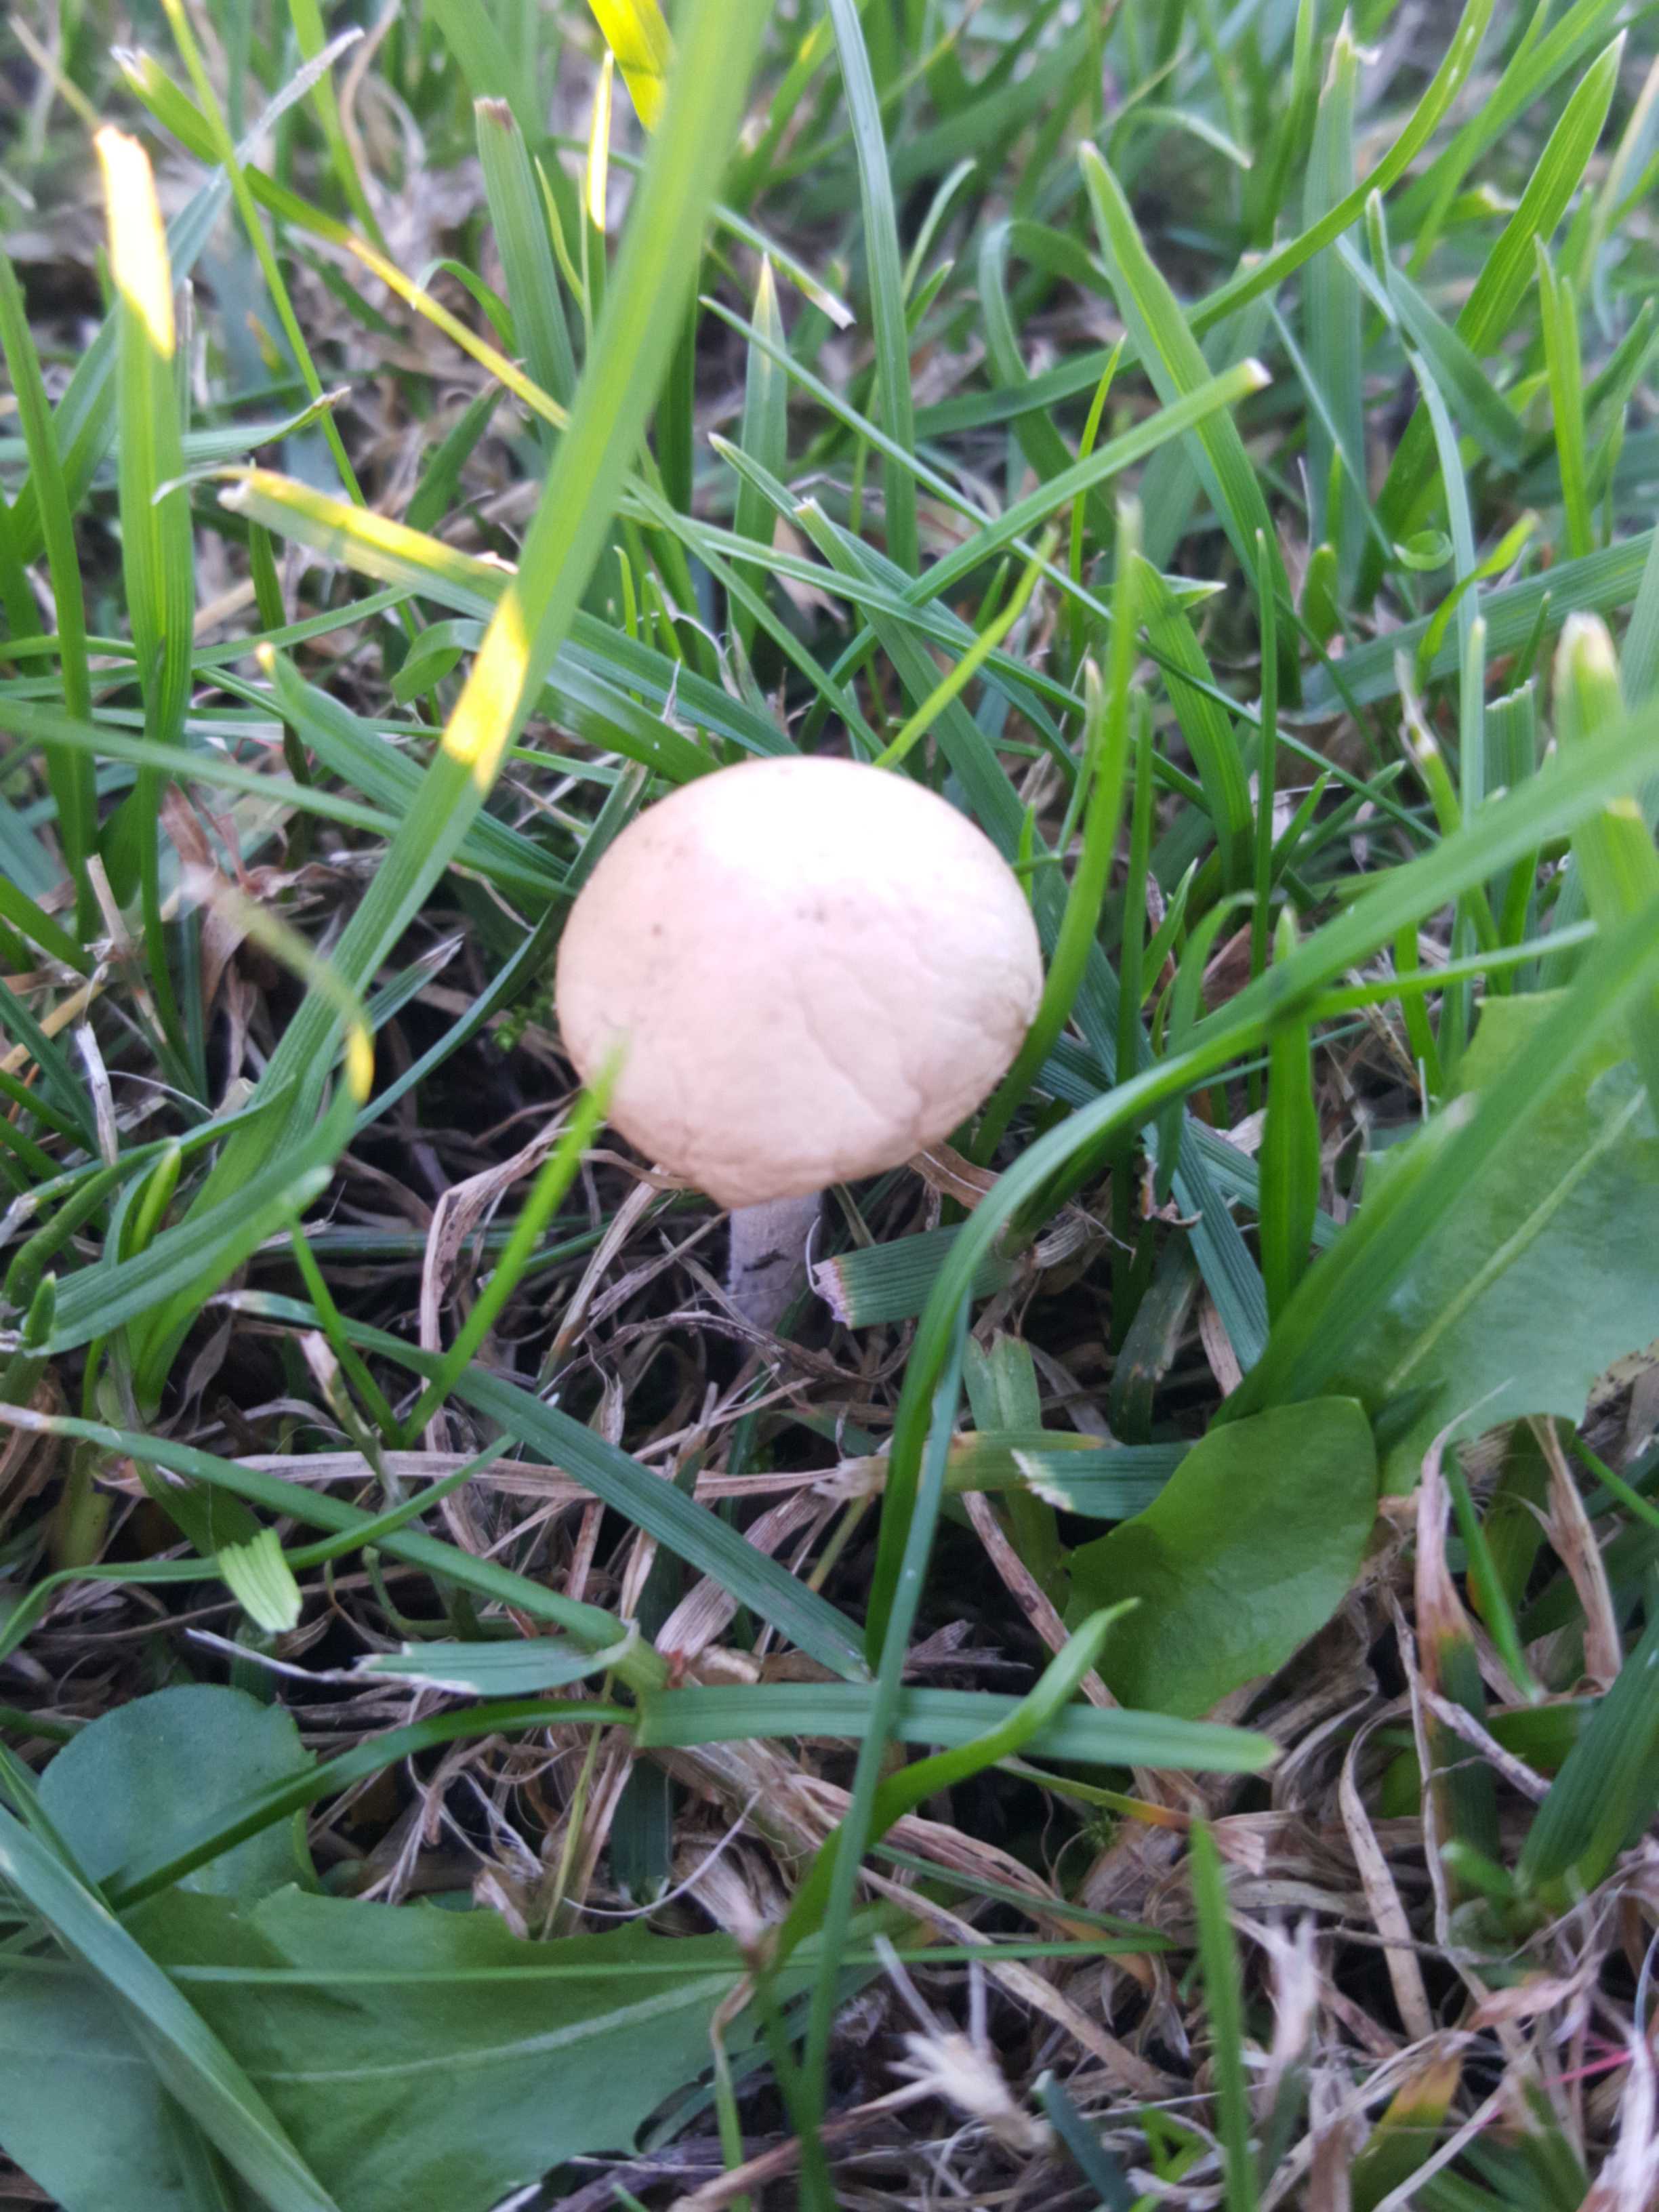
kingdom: Fungi
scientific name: Fungi
